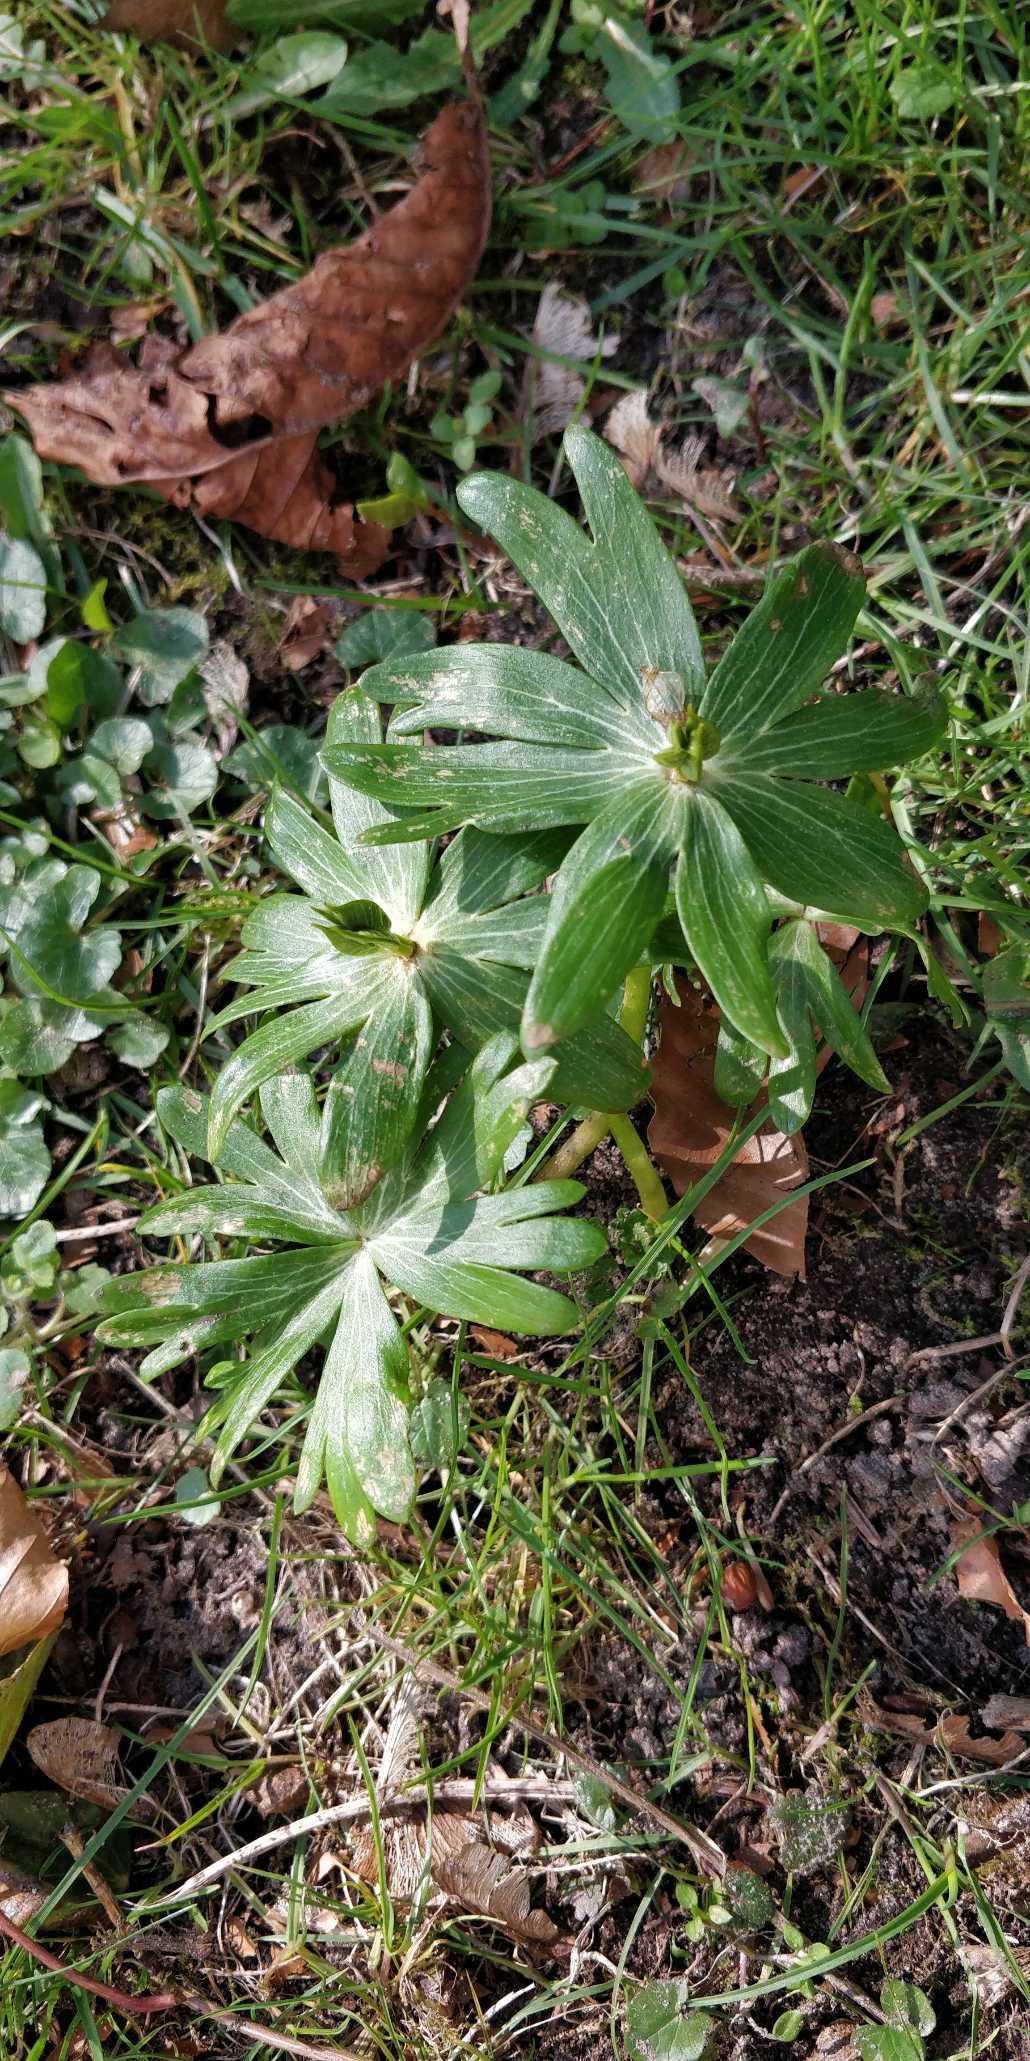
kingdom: Plantae
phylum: Tracheophyta
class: Magnoliopsida
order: Ranunculales
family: Ranunculaceae
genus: Eranthis
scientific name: Eranthis hyemalis
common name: Erantis
